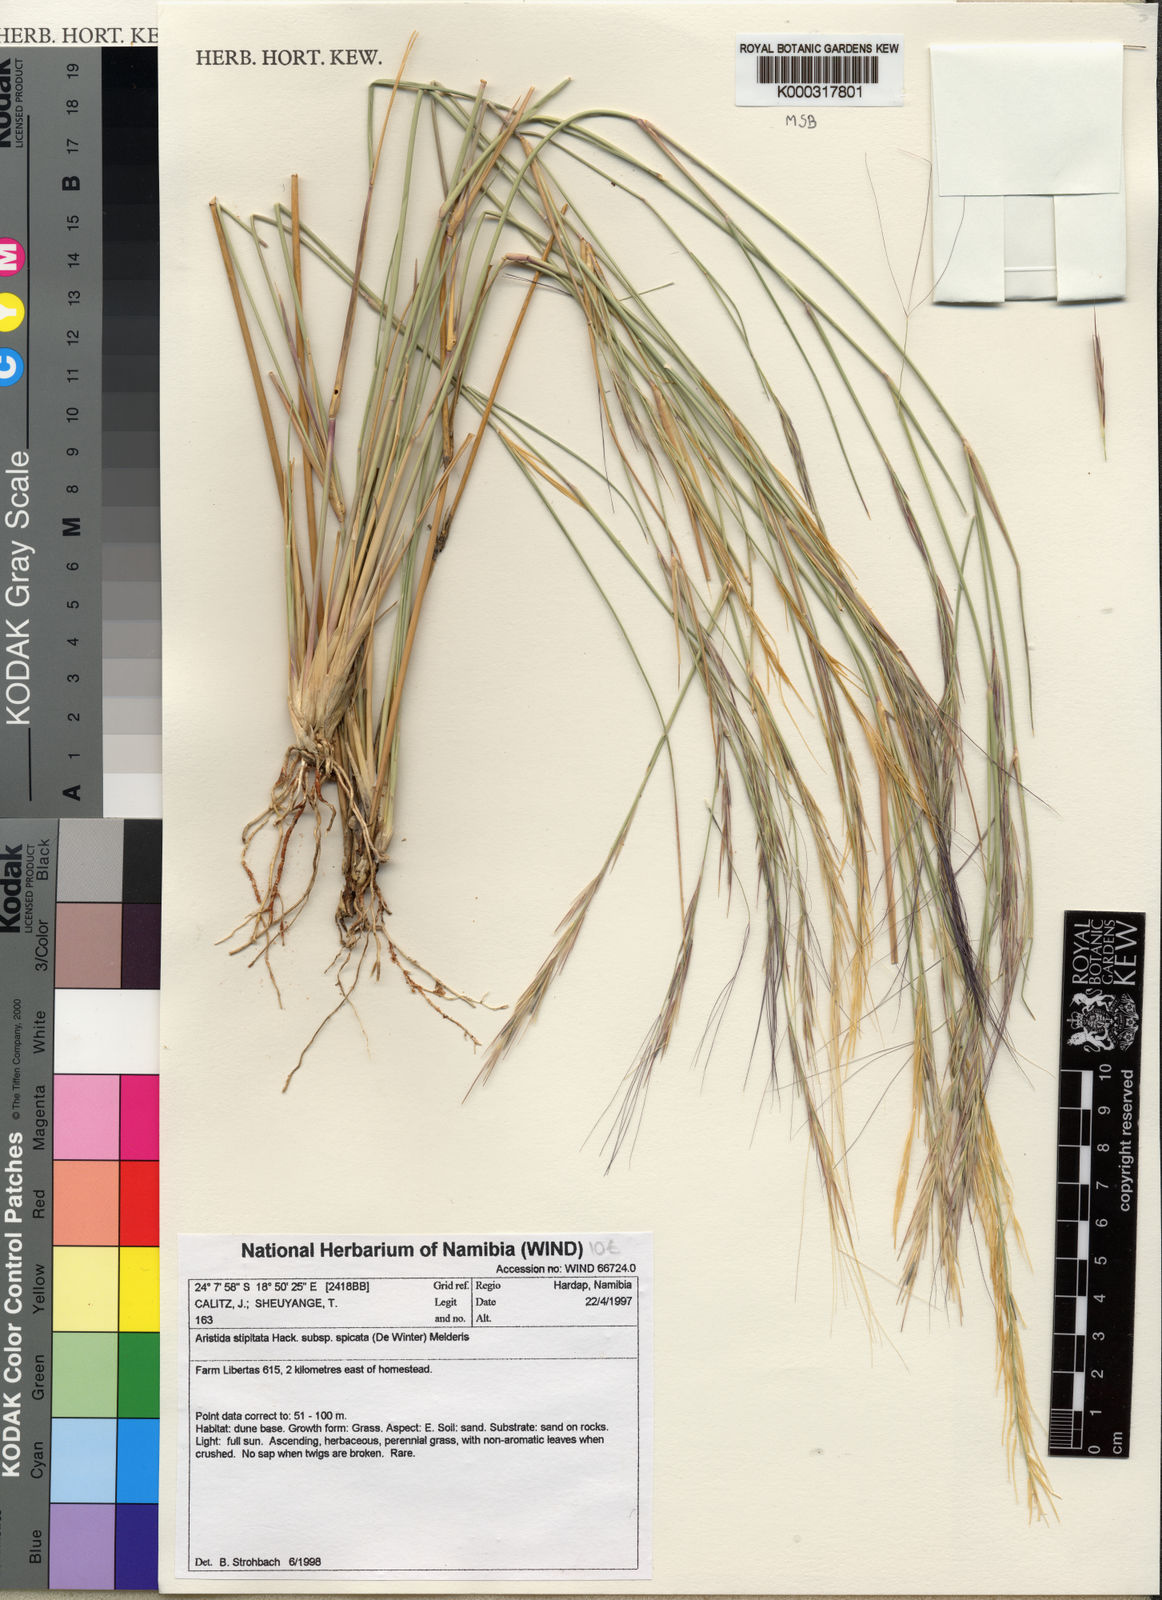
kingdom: Plantae
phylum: Tracheophyta
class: Liliopsida
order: Poales
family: Poaceae
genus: Aristida
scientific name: Aristida stipitata
